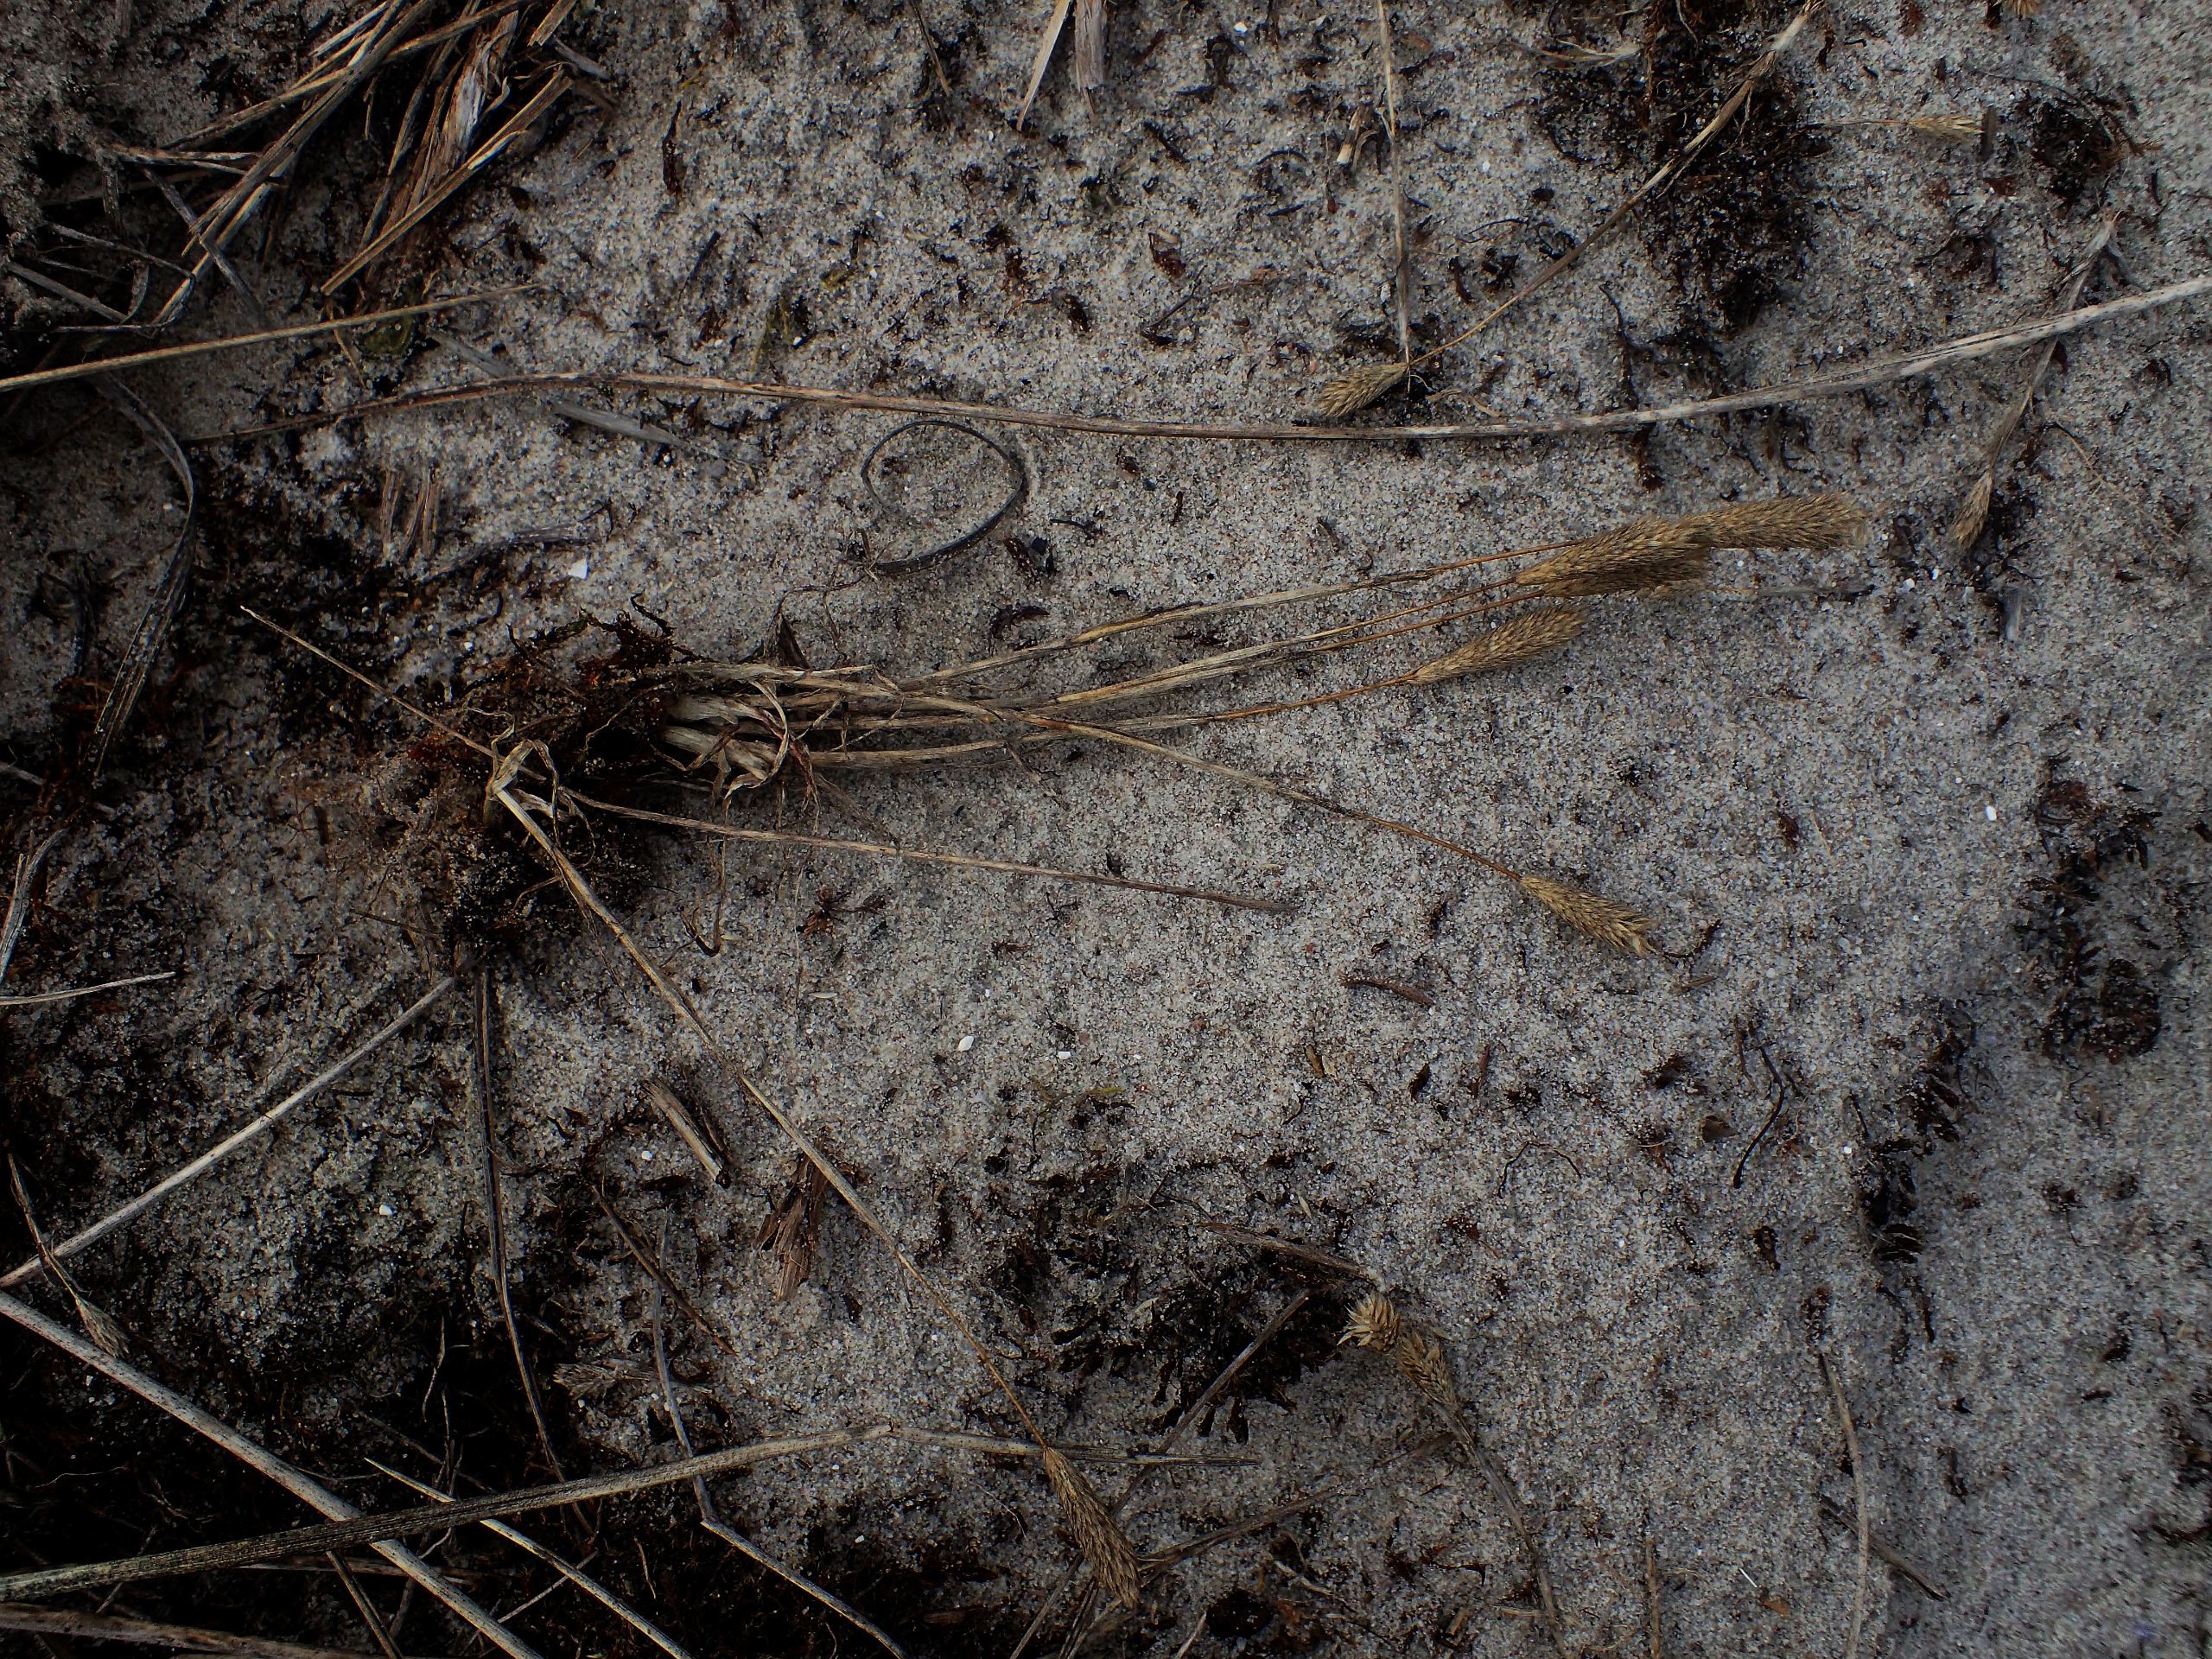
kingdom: Plantae
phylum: Tracheophyta
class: Liliopsida
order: Poales
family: Poaceae
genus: Phleum
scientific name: Phleum arenarium
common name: Sand-rottehale
